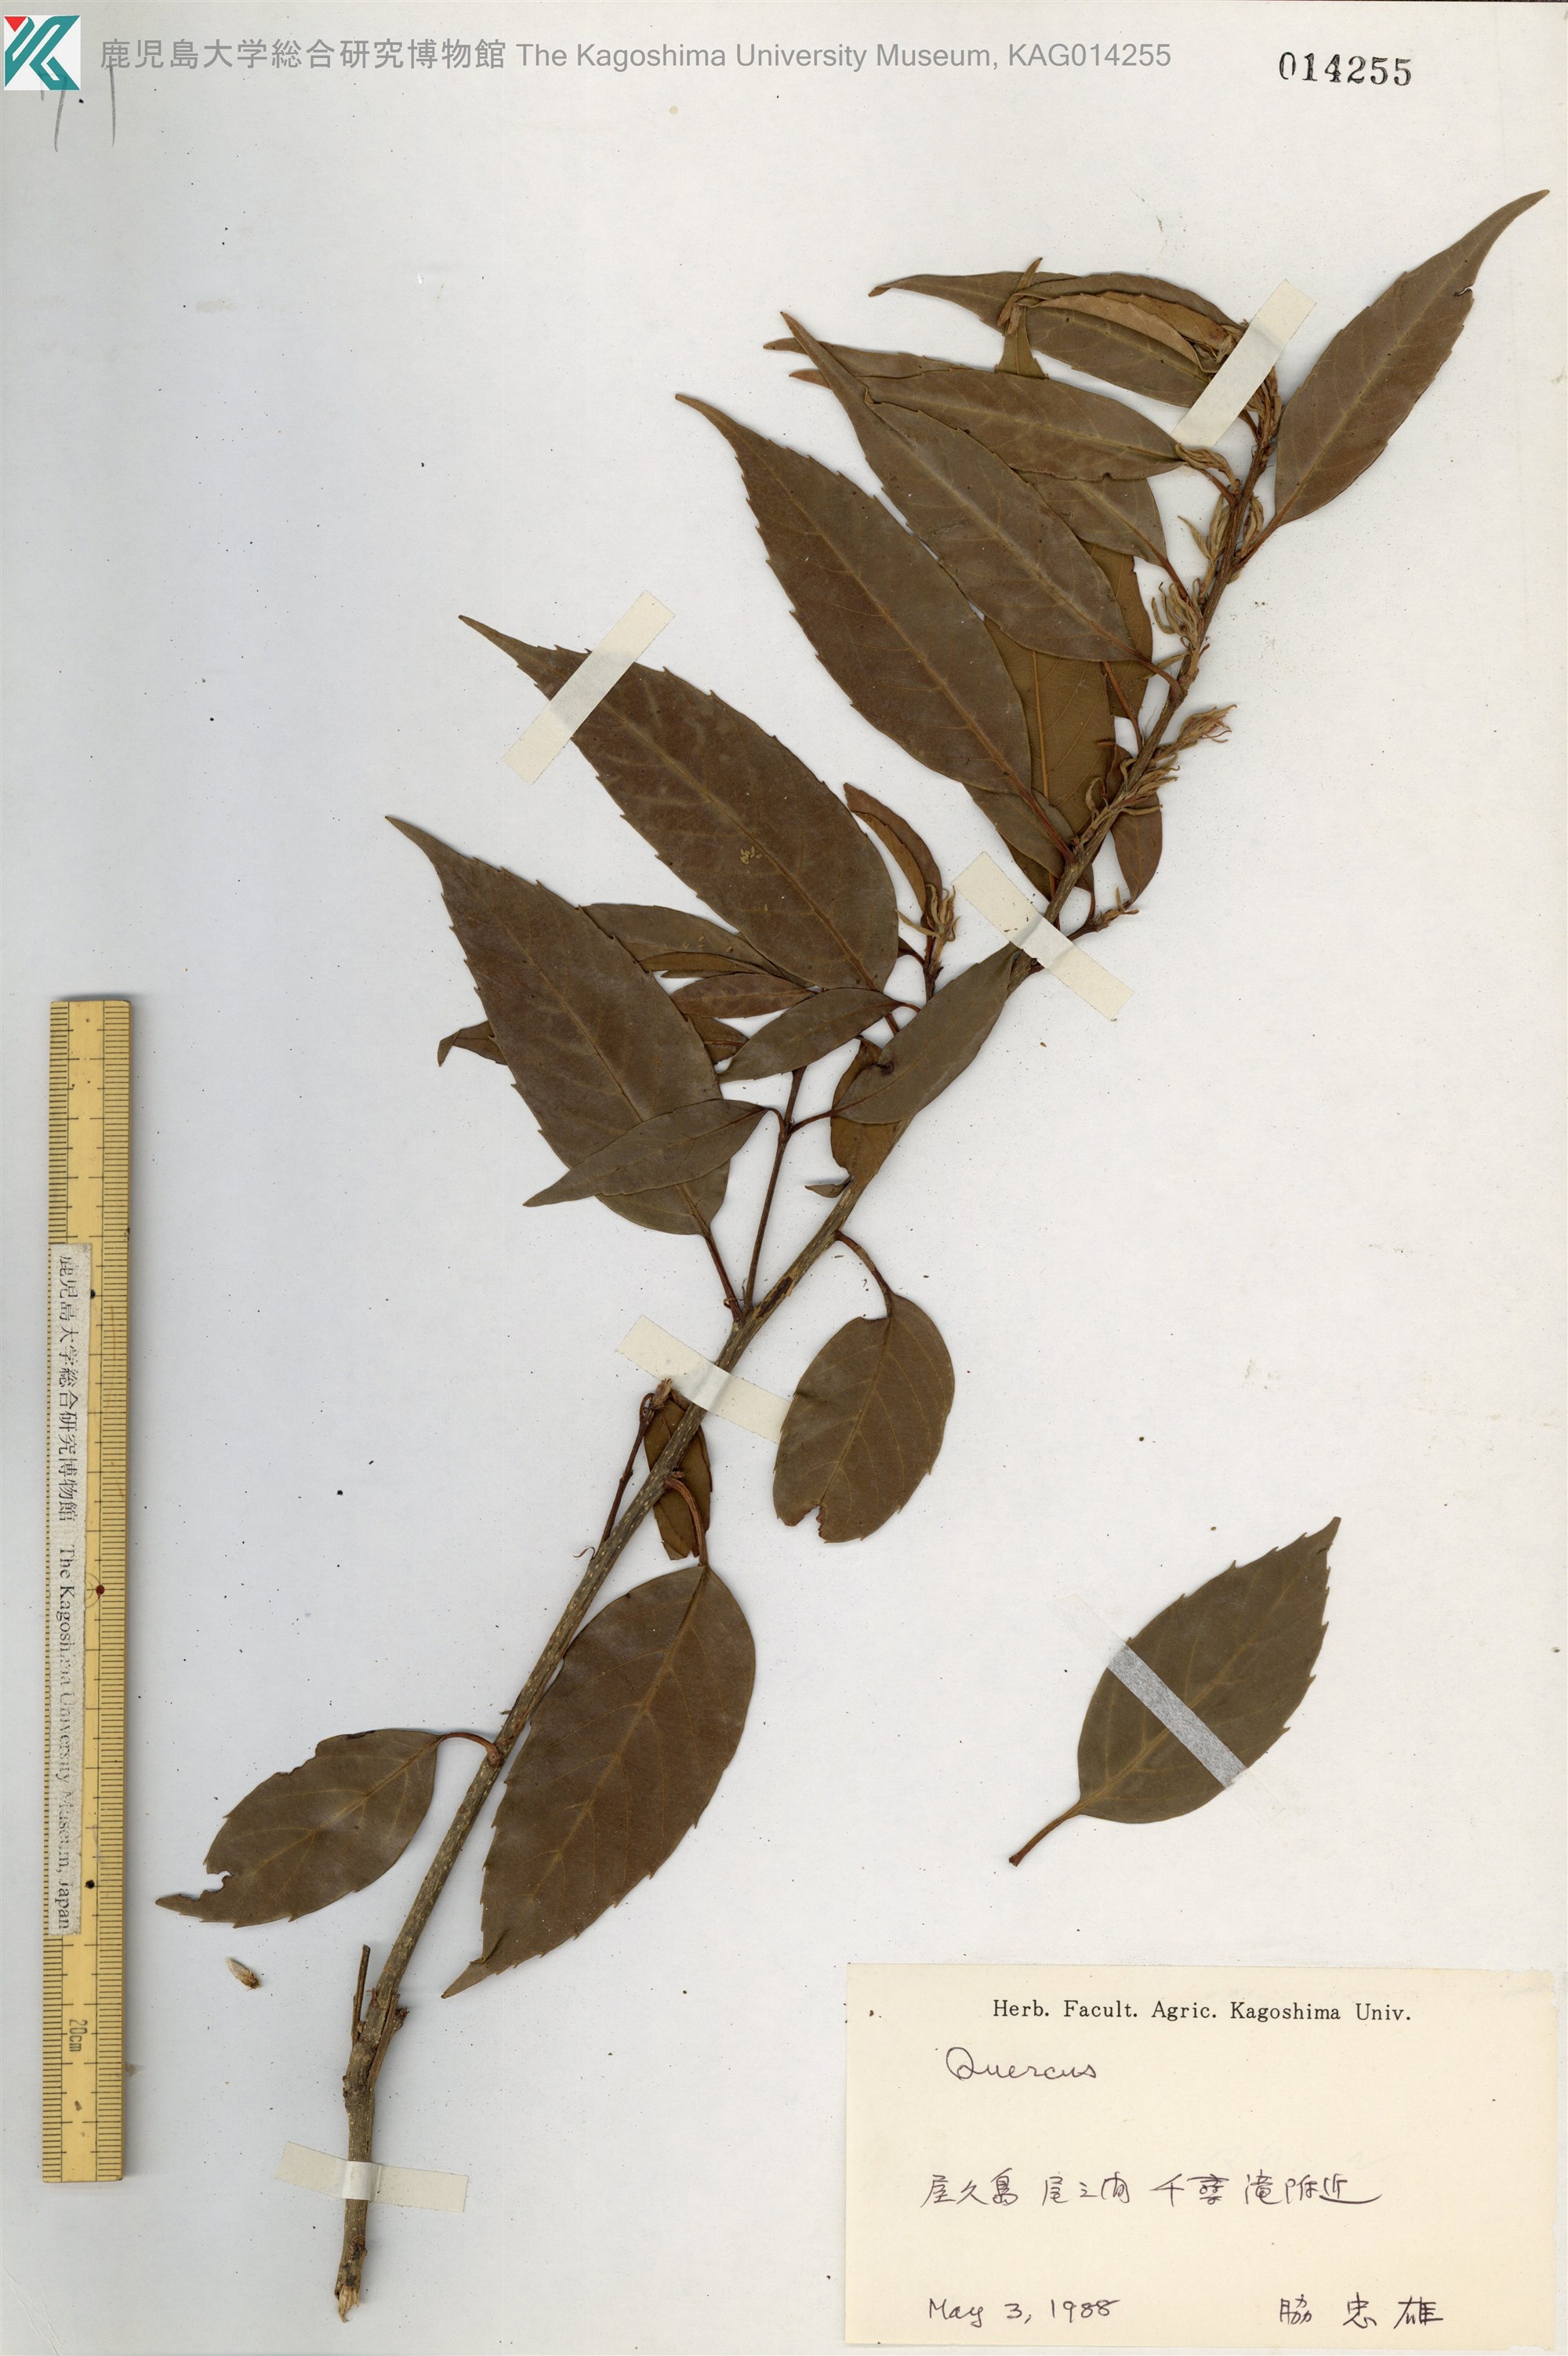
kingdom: Plantae
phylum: Tracheophyta
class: Magnoliopsida
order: Fagales
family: Fagaceae
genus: Quercus
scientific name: Quercus
